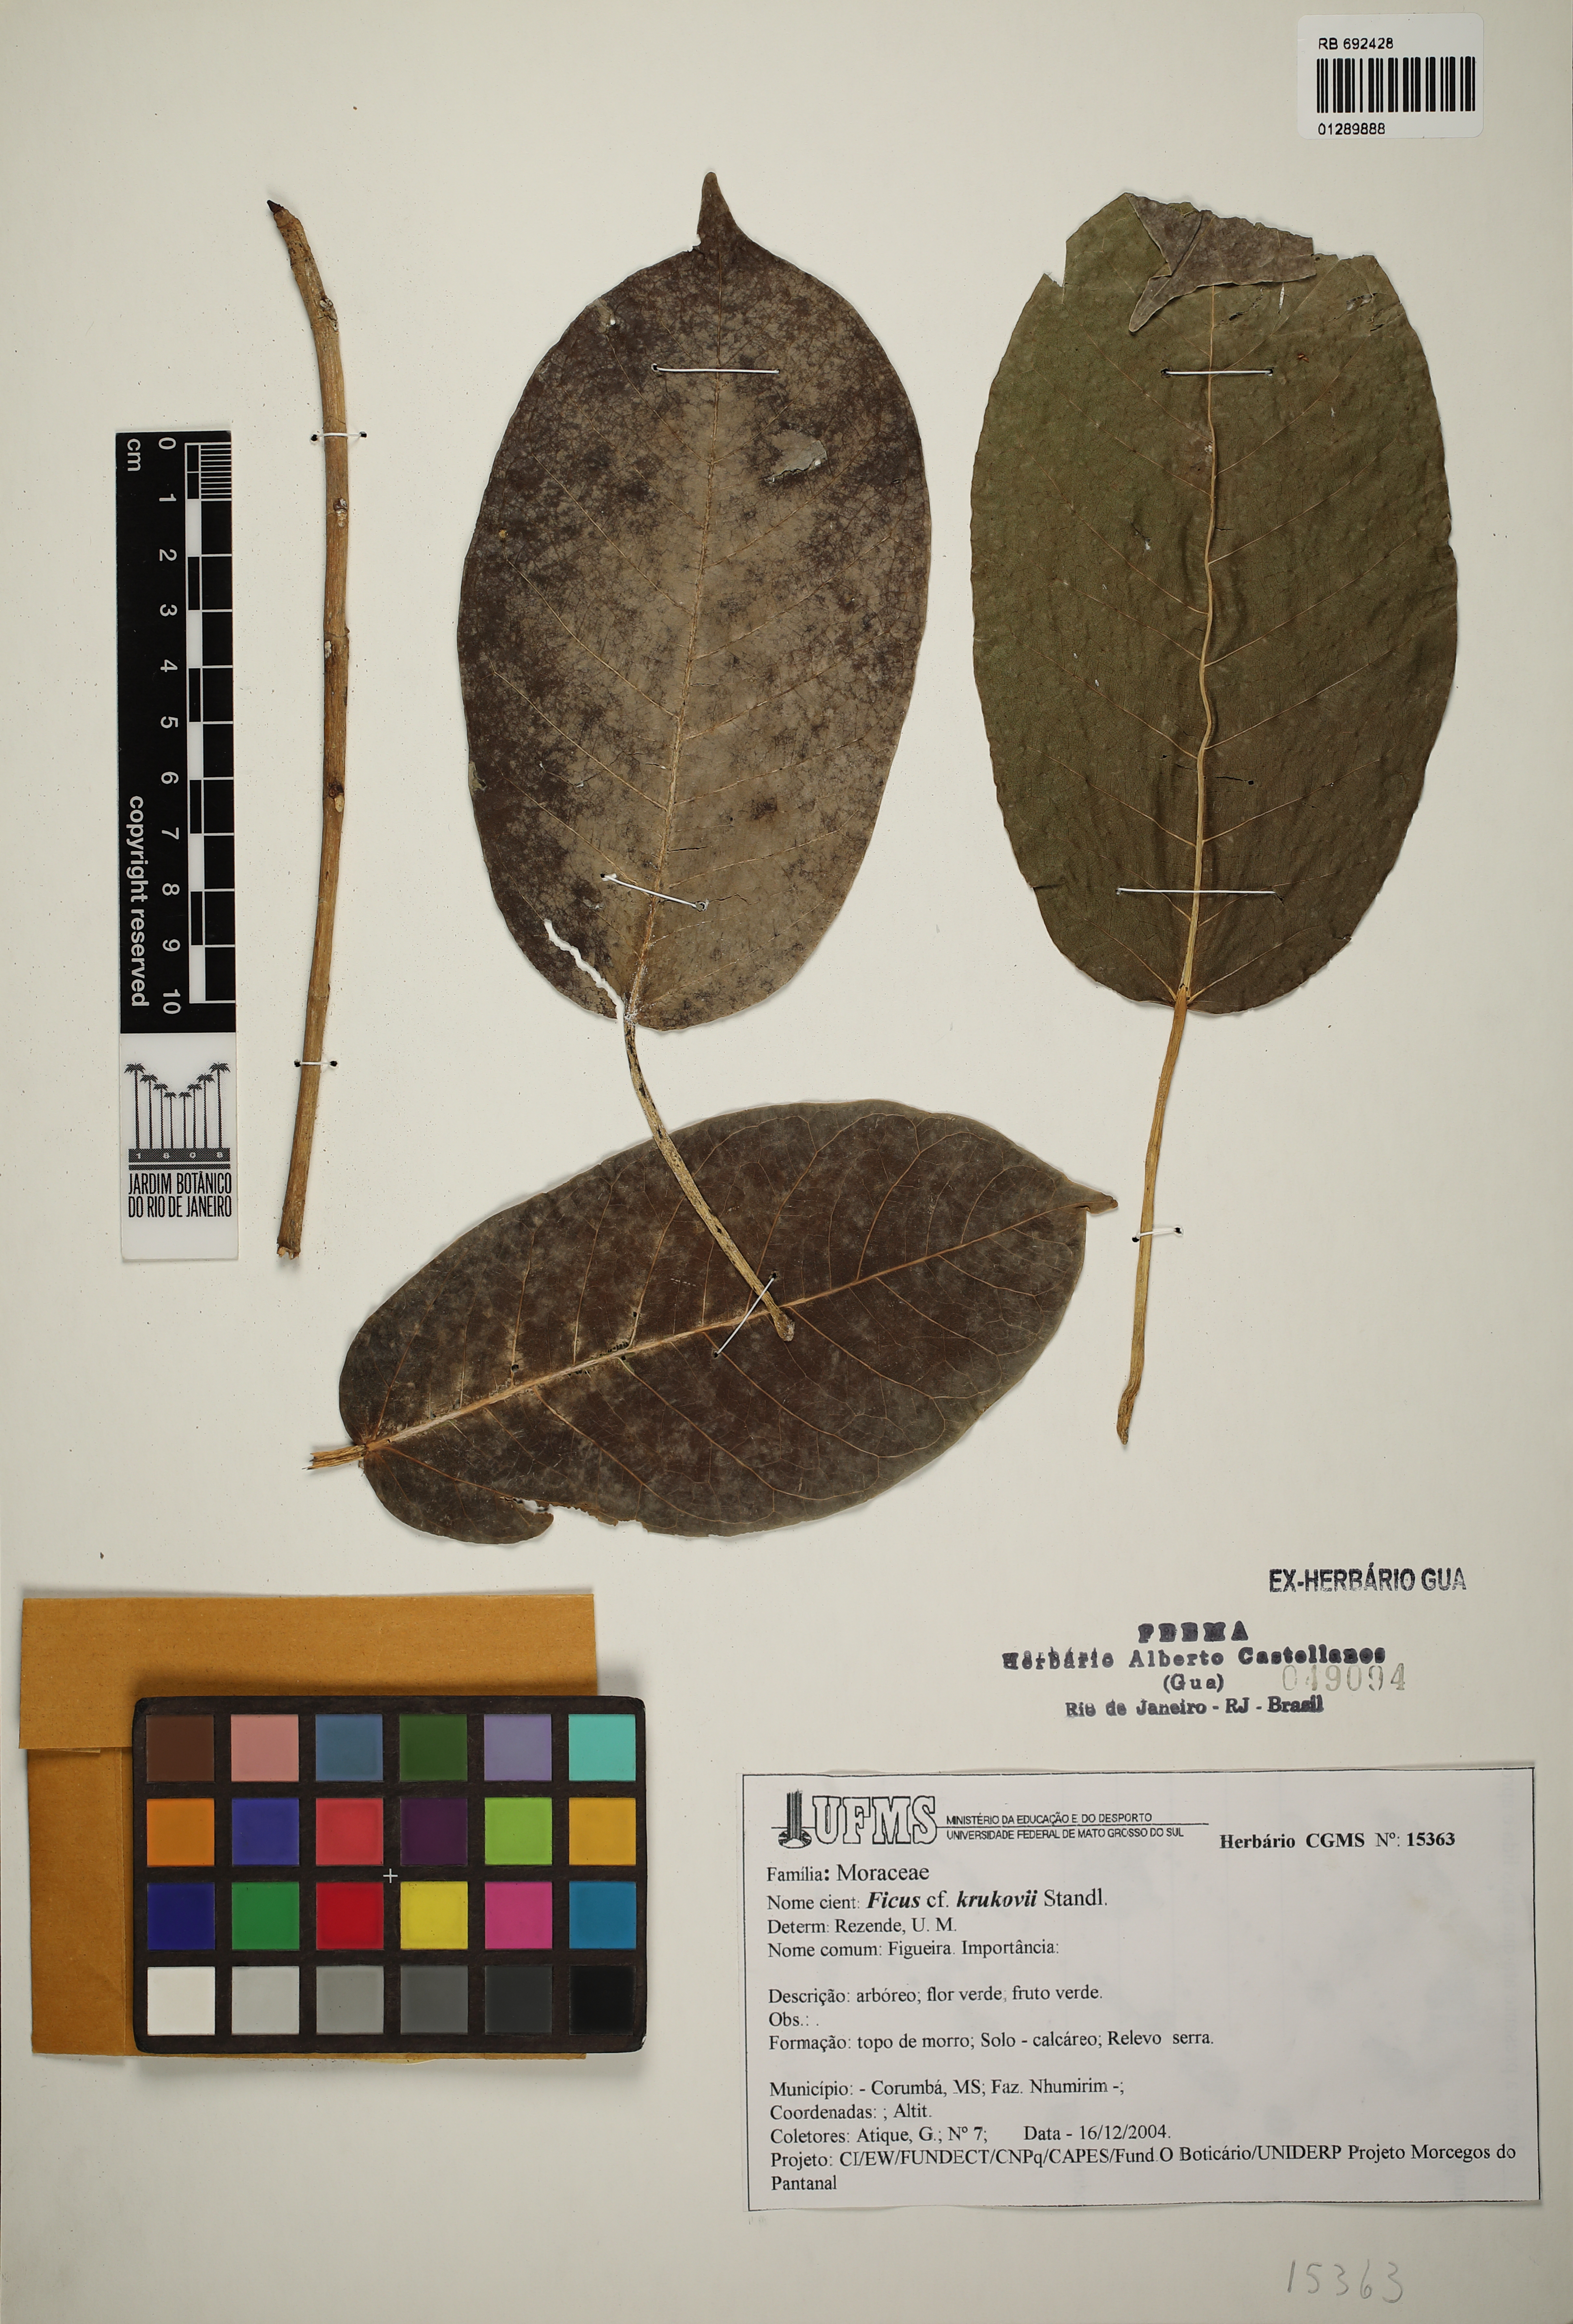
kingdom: Plantae
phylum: Tracheophyta
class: Magnoliopsida
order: Rosales
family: Moraceae
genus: Ficus
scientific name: Ficus krukovii
